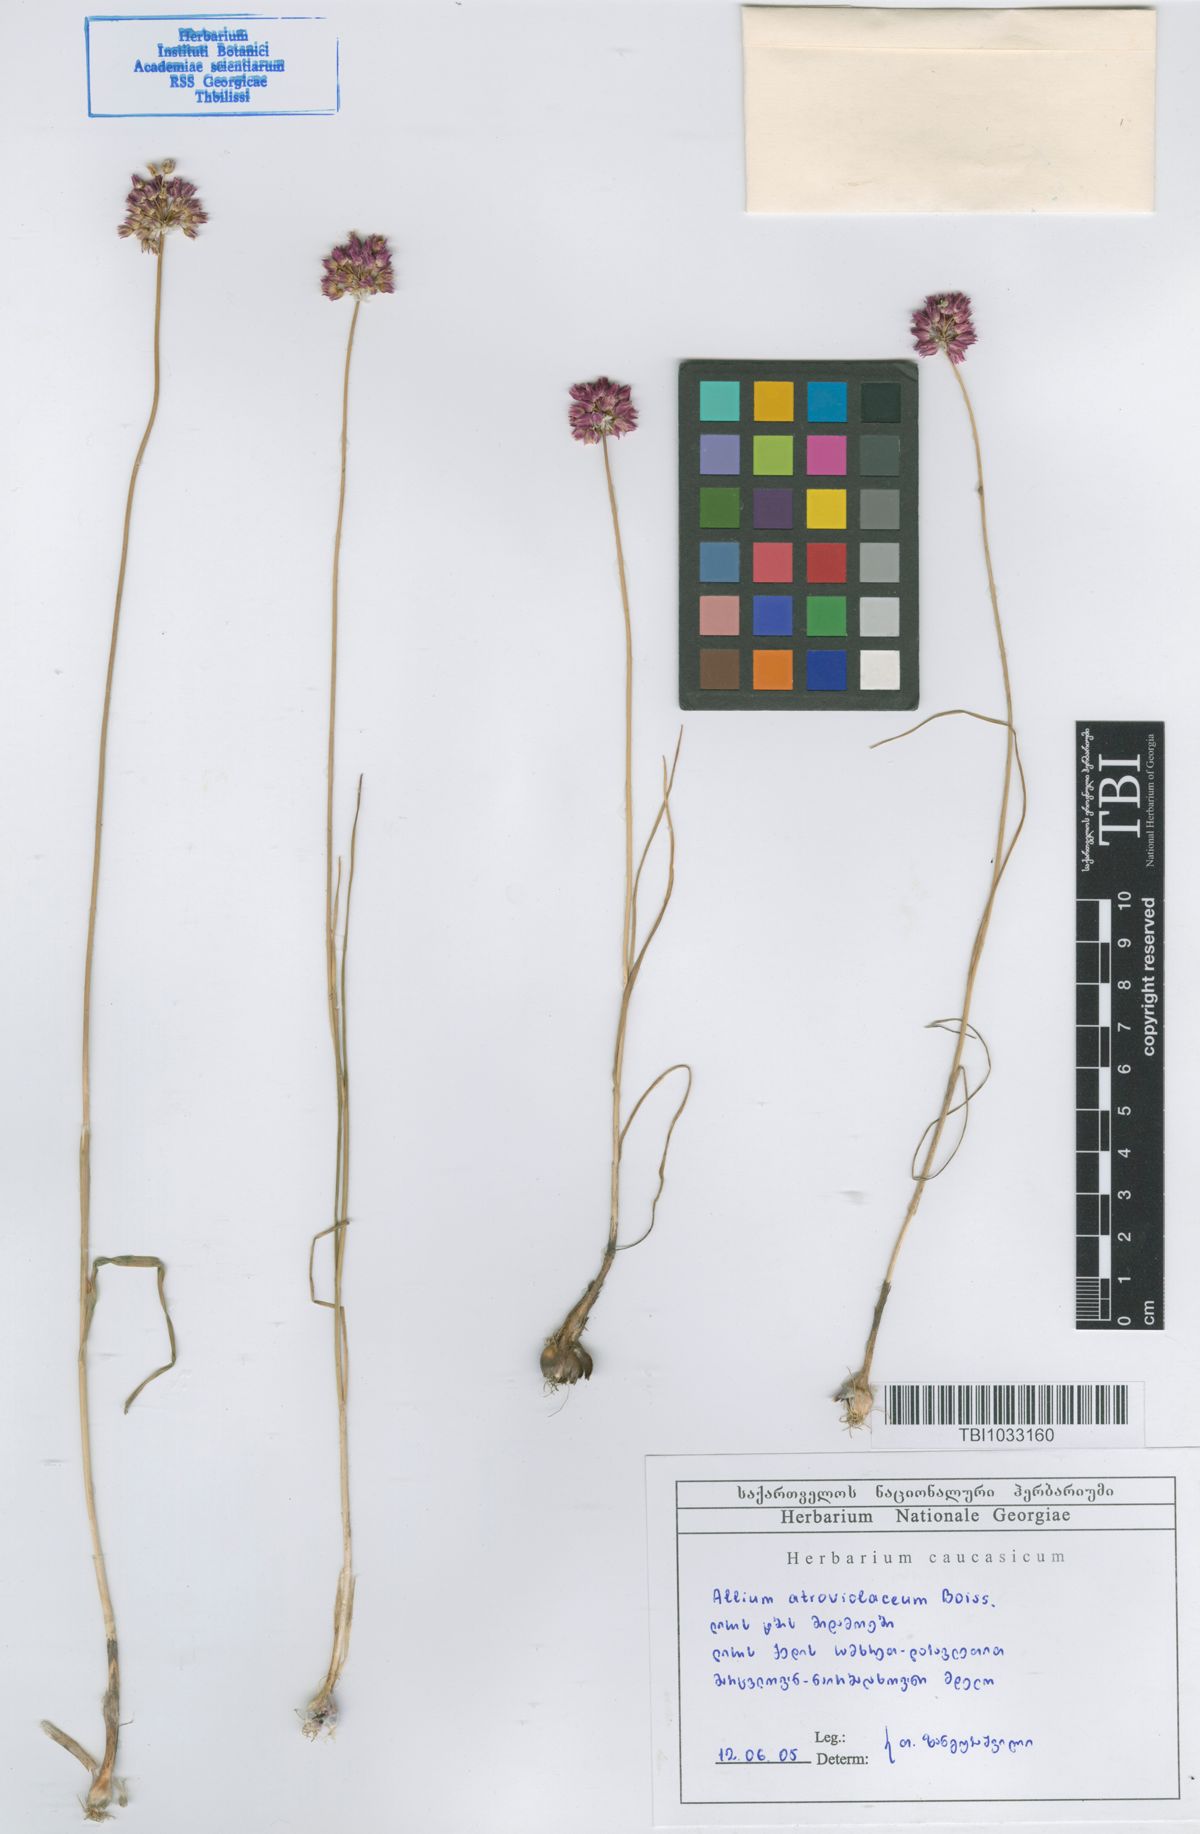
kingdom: Plantae
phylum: Tracheophyta
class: Liliopsida
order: Asparagales
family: Amaryllidaceae
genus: Allium
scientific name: Allium atroviolaceum
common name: Broadleaf wild leek
